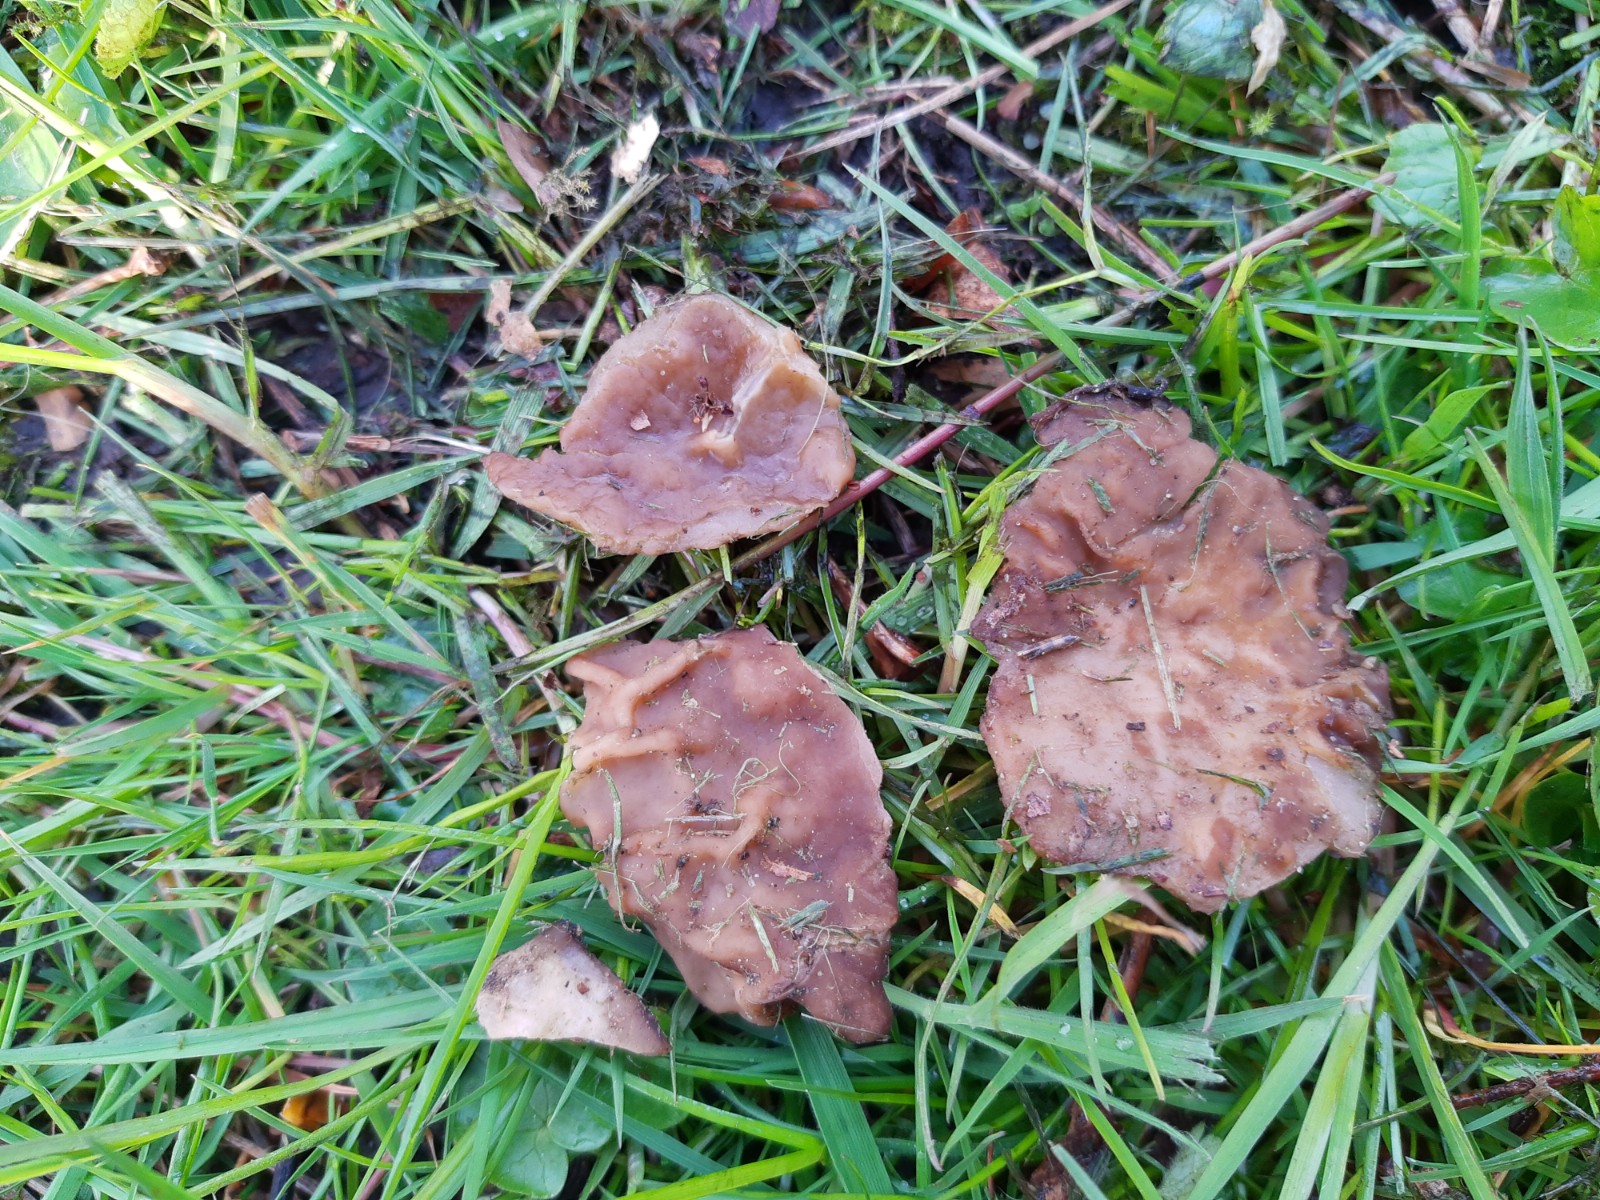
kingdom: Fungi
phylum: Ascomycota
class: Pezizomycetes
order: Pezizales
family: Morchellaceae
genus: Disciotis
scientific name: Disciotis venosa
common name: klor-bægermorkel
